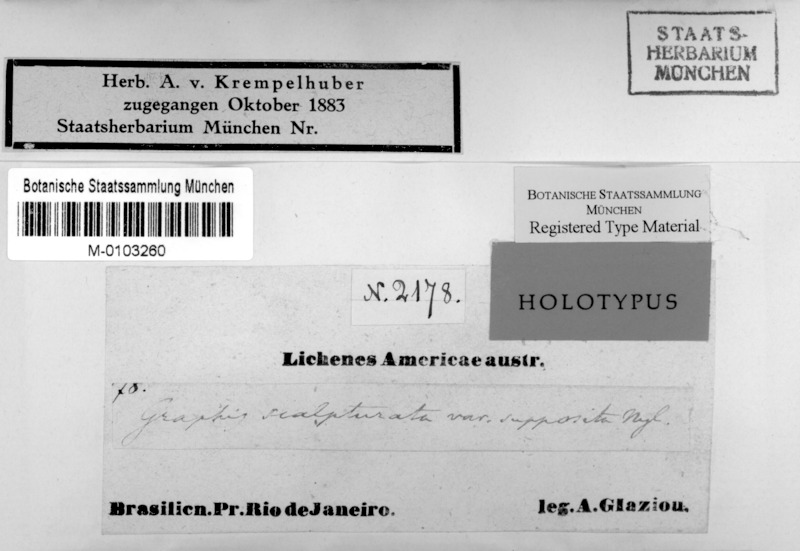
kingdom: Fungi
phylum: Ascomycota
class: Lecanoromycetes
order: Ostropales
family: Graphidaceae
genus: Phaeographis
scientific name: Phaeographis scalpturata
